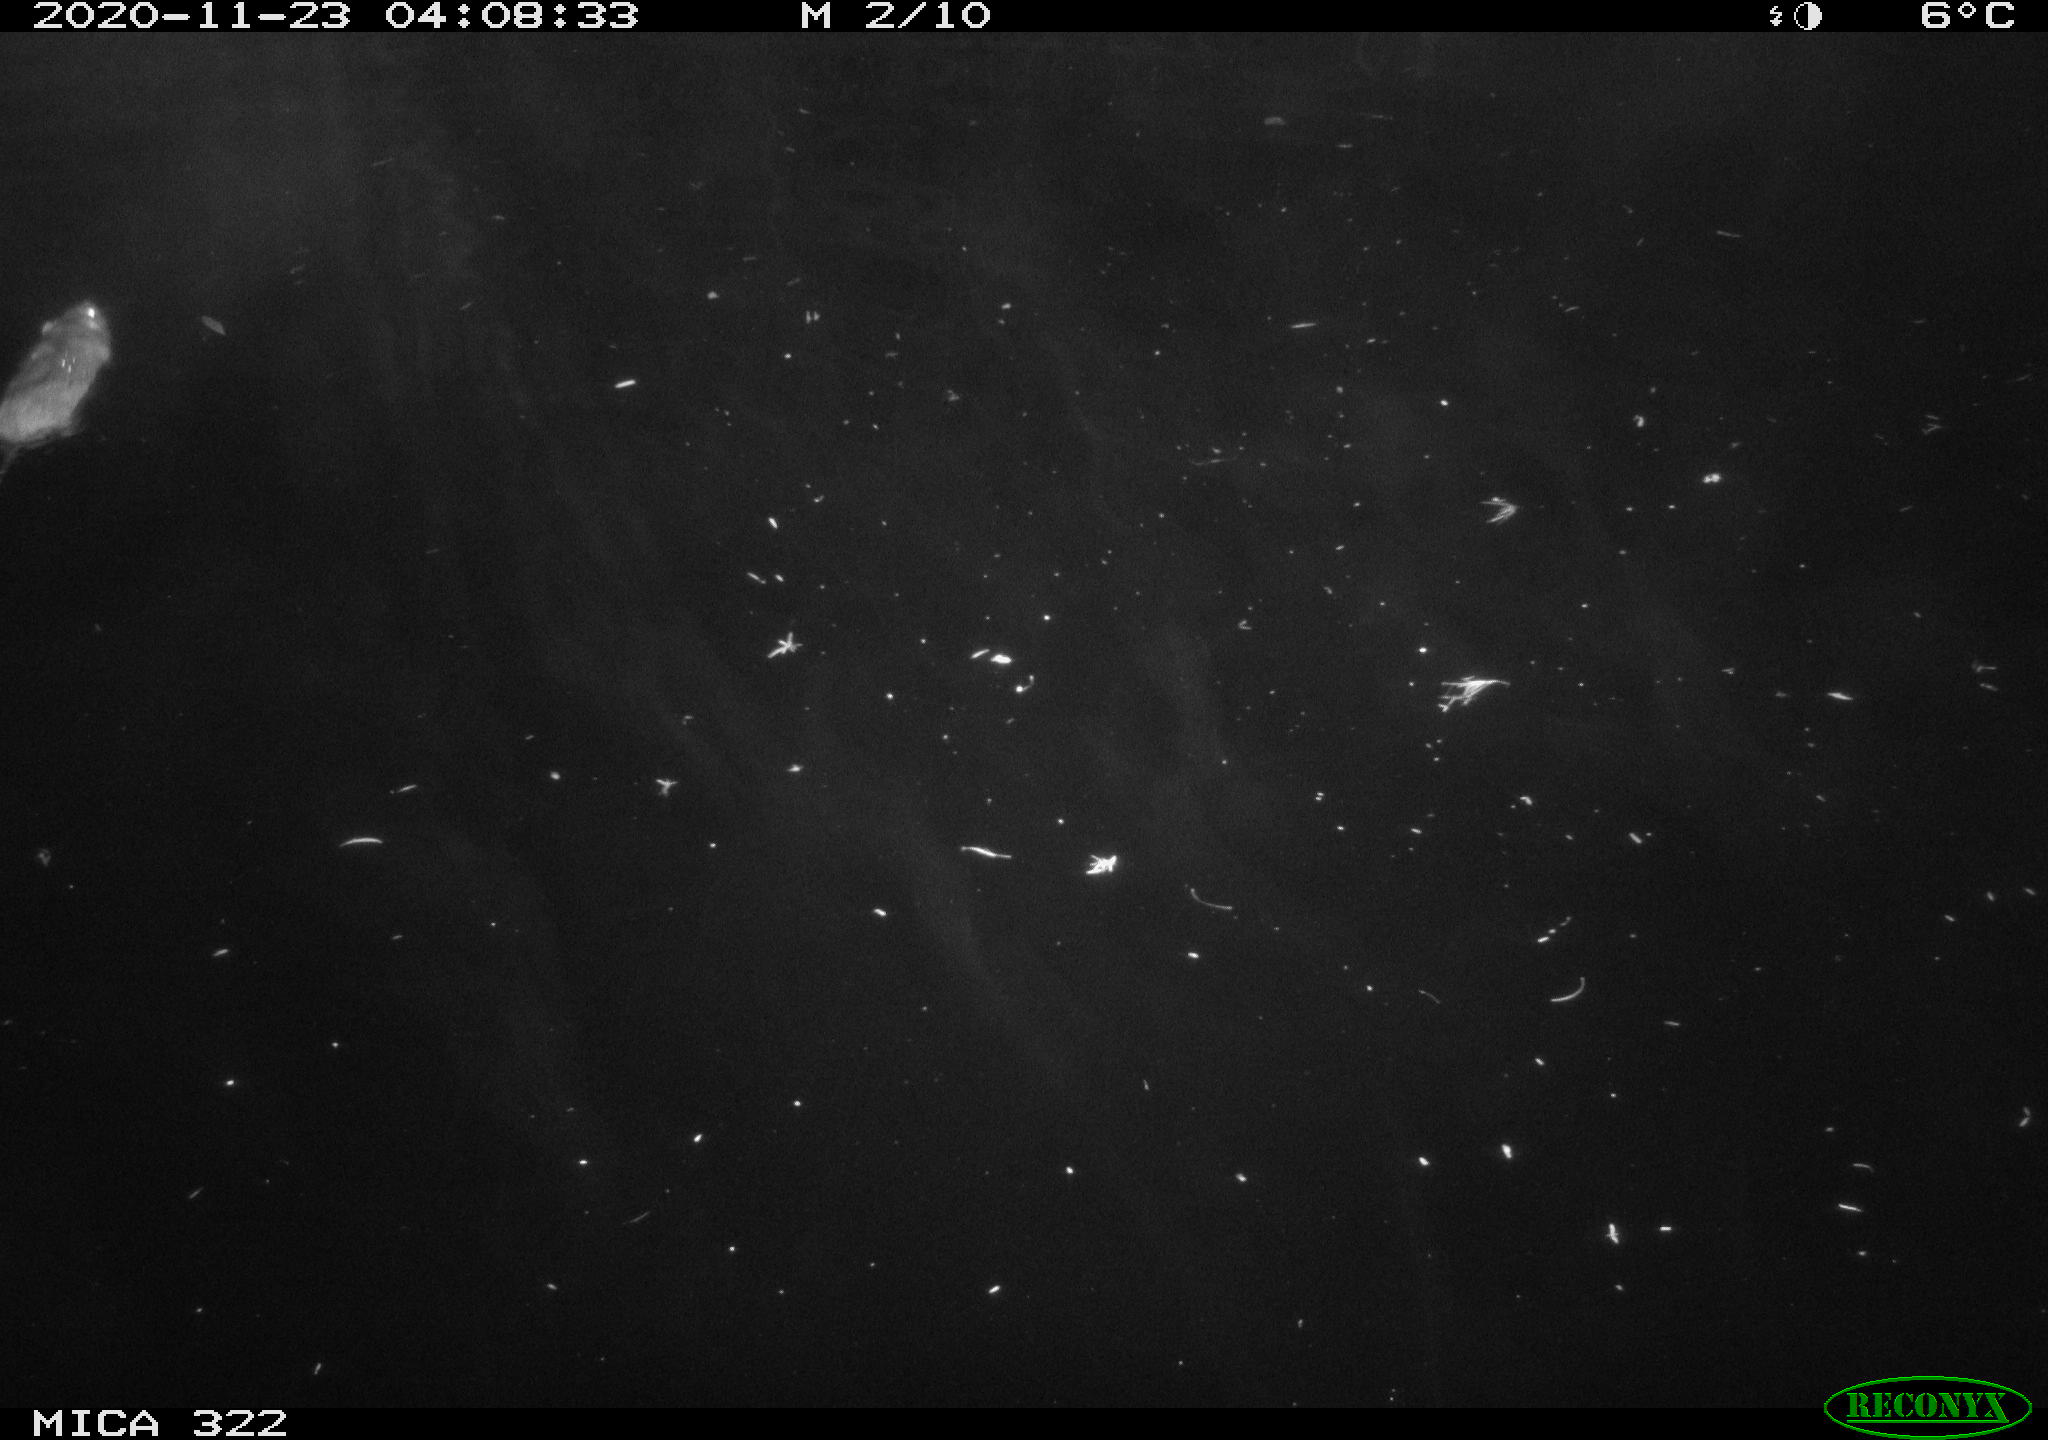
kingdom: Animalia
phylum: Chordata
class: Mammalia
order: Rodentia
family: Cricetidae
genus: Ondatra
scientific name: Ondatra zibethicus
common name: Muskrat
